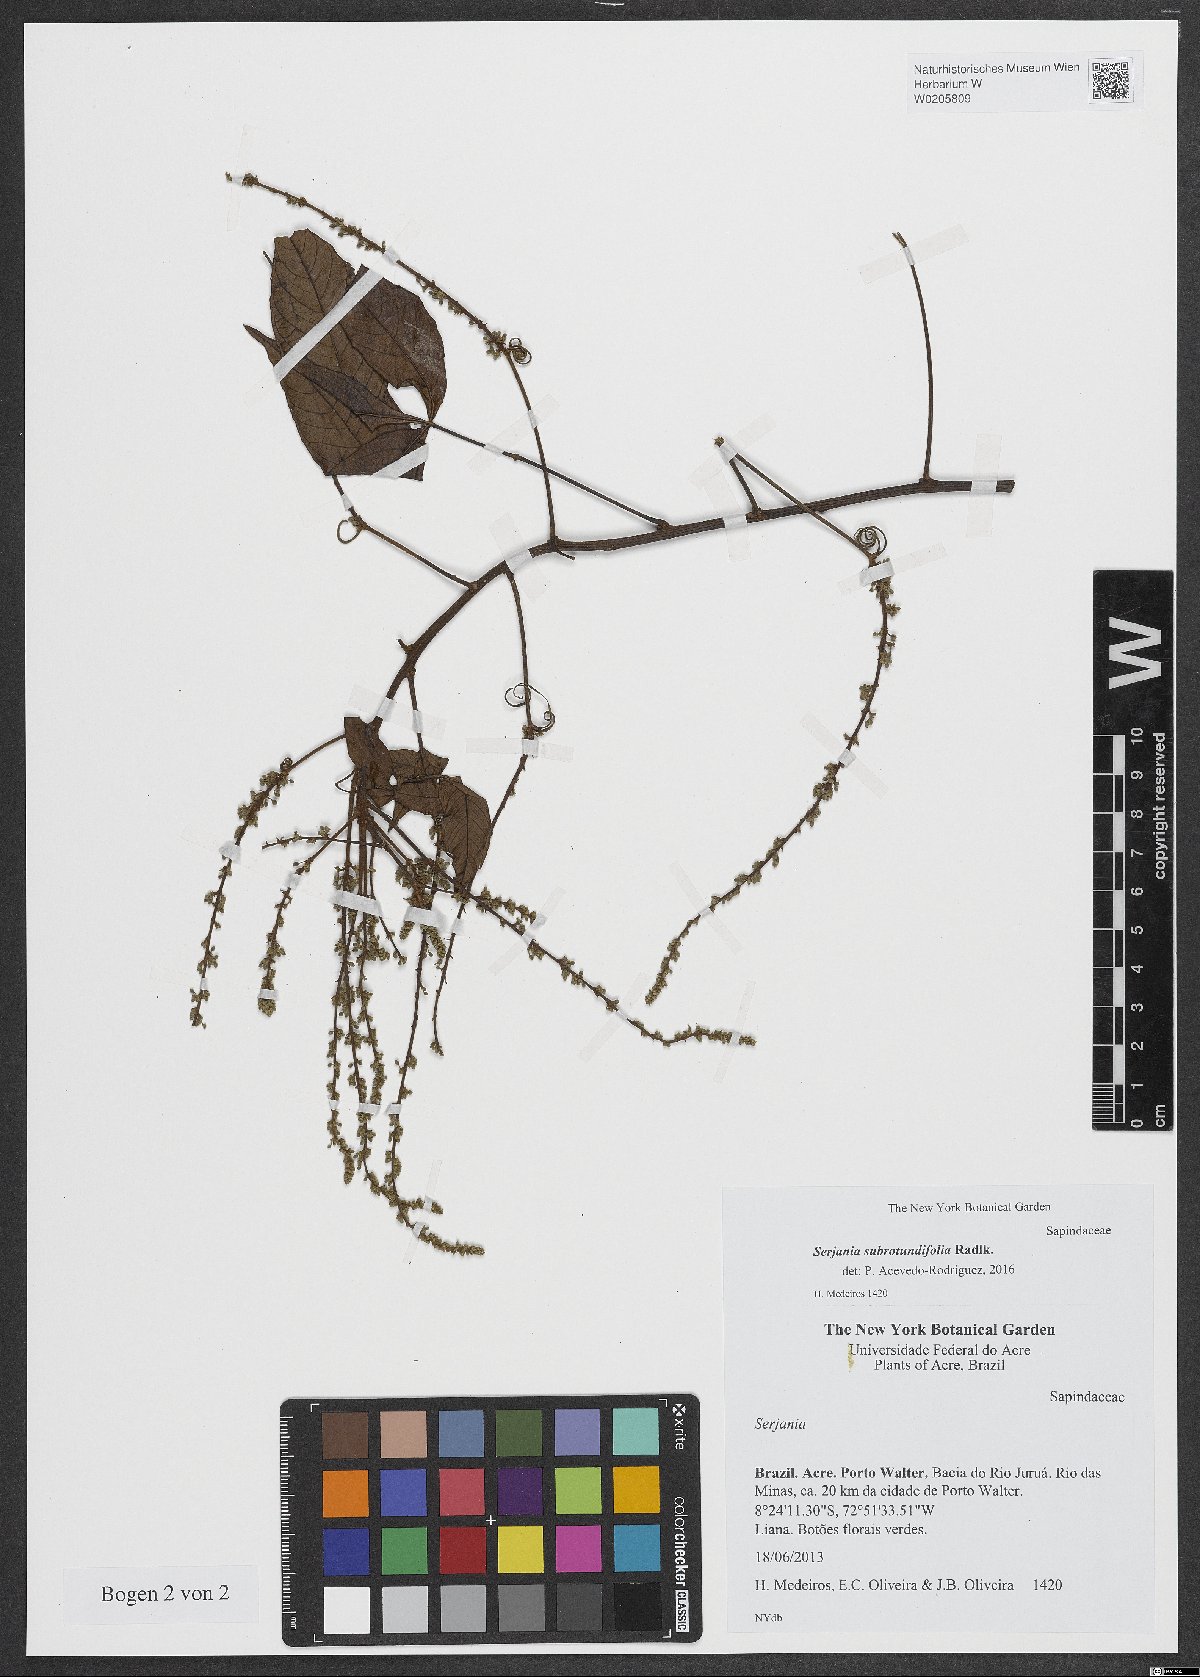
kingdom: Plantae
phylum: Tracheophyta
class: Magnoliopsida
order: Sapindales
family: Sapindaceae
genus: Serjania
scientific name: Serjania subrotundifolia
